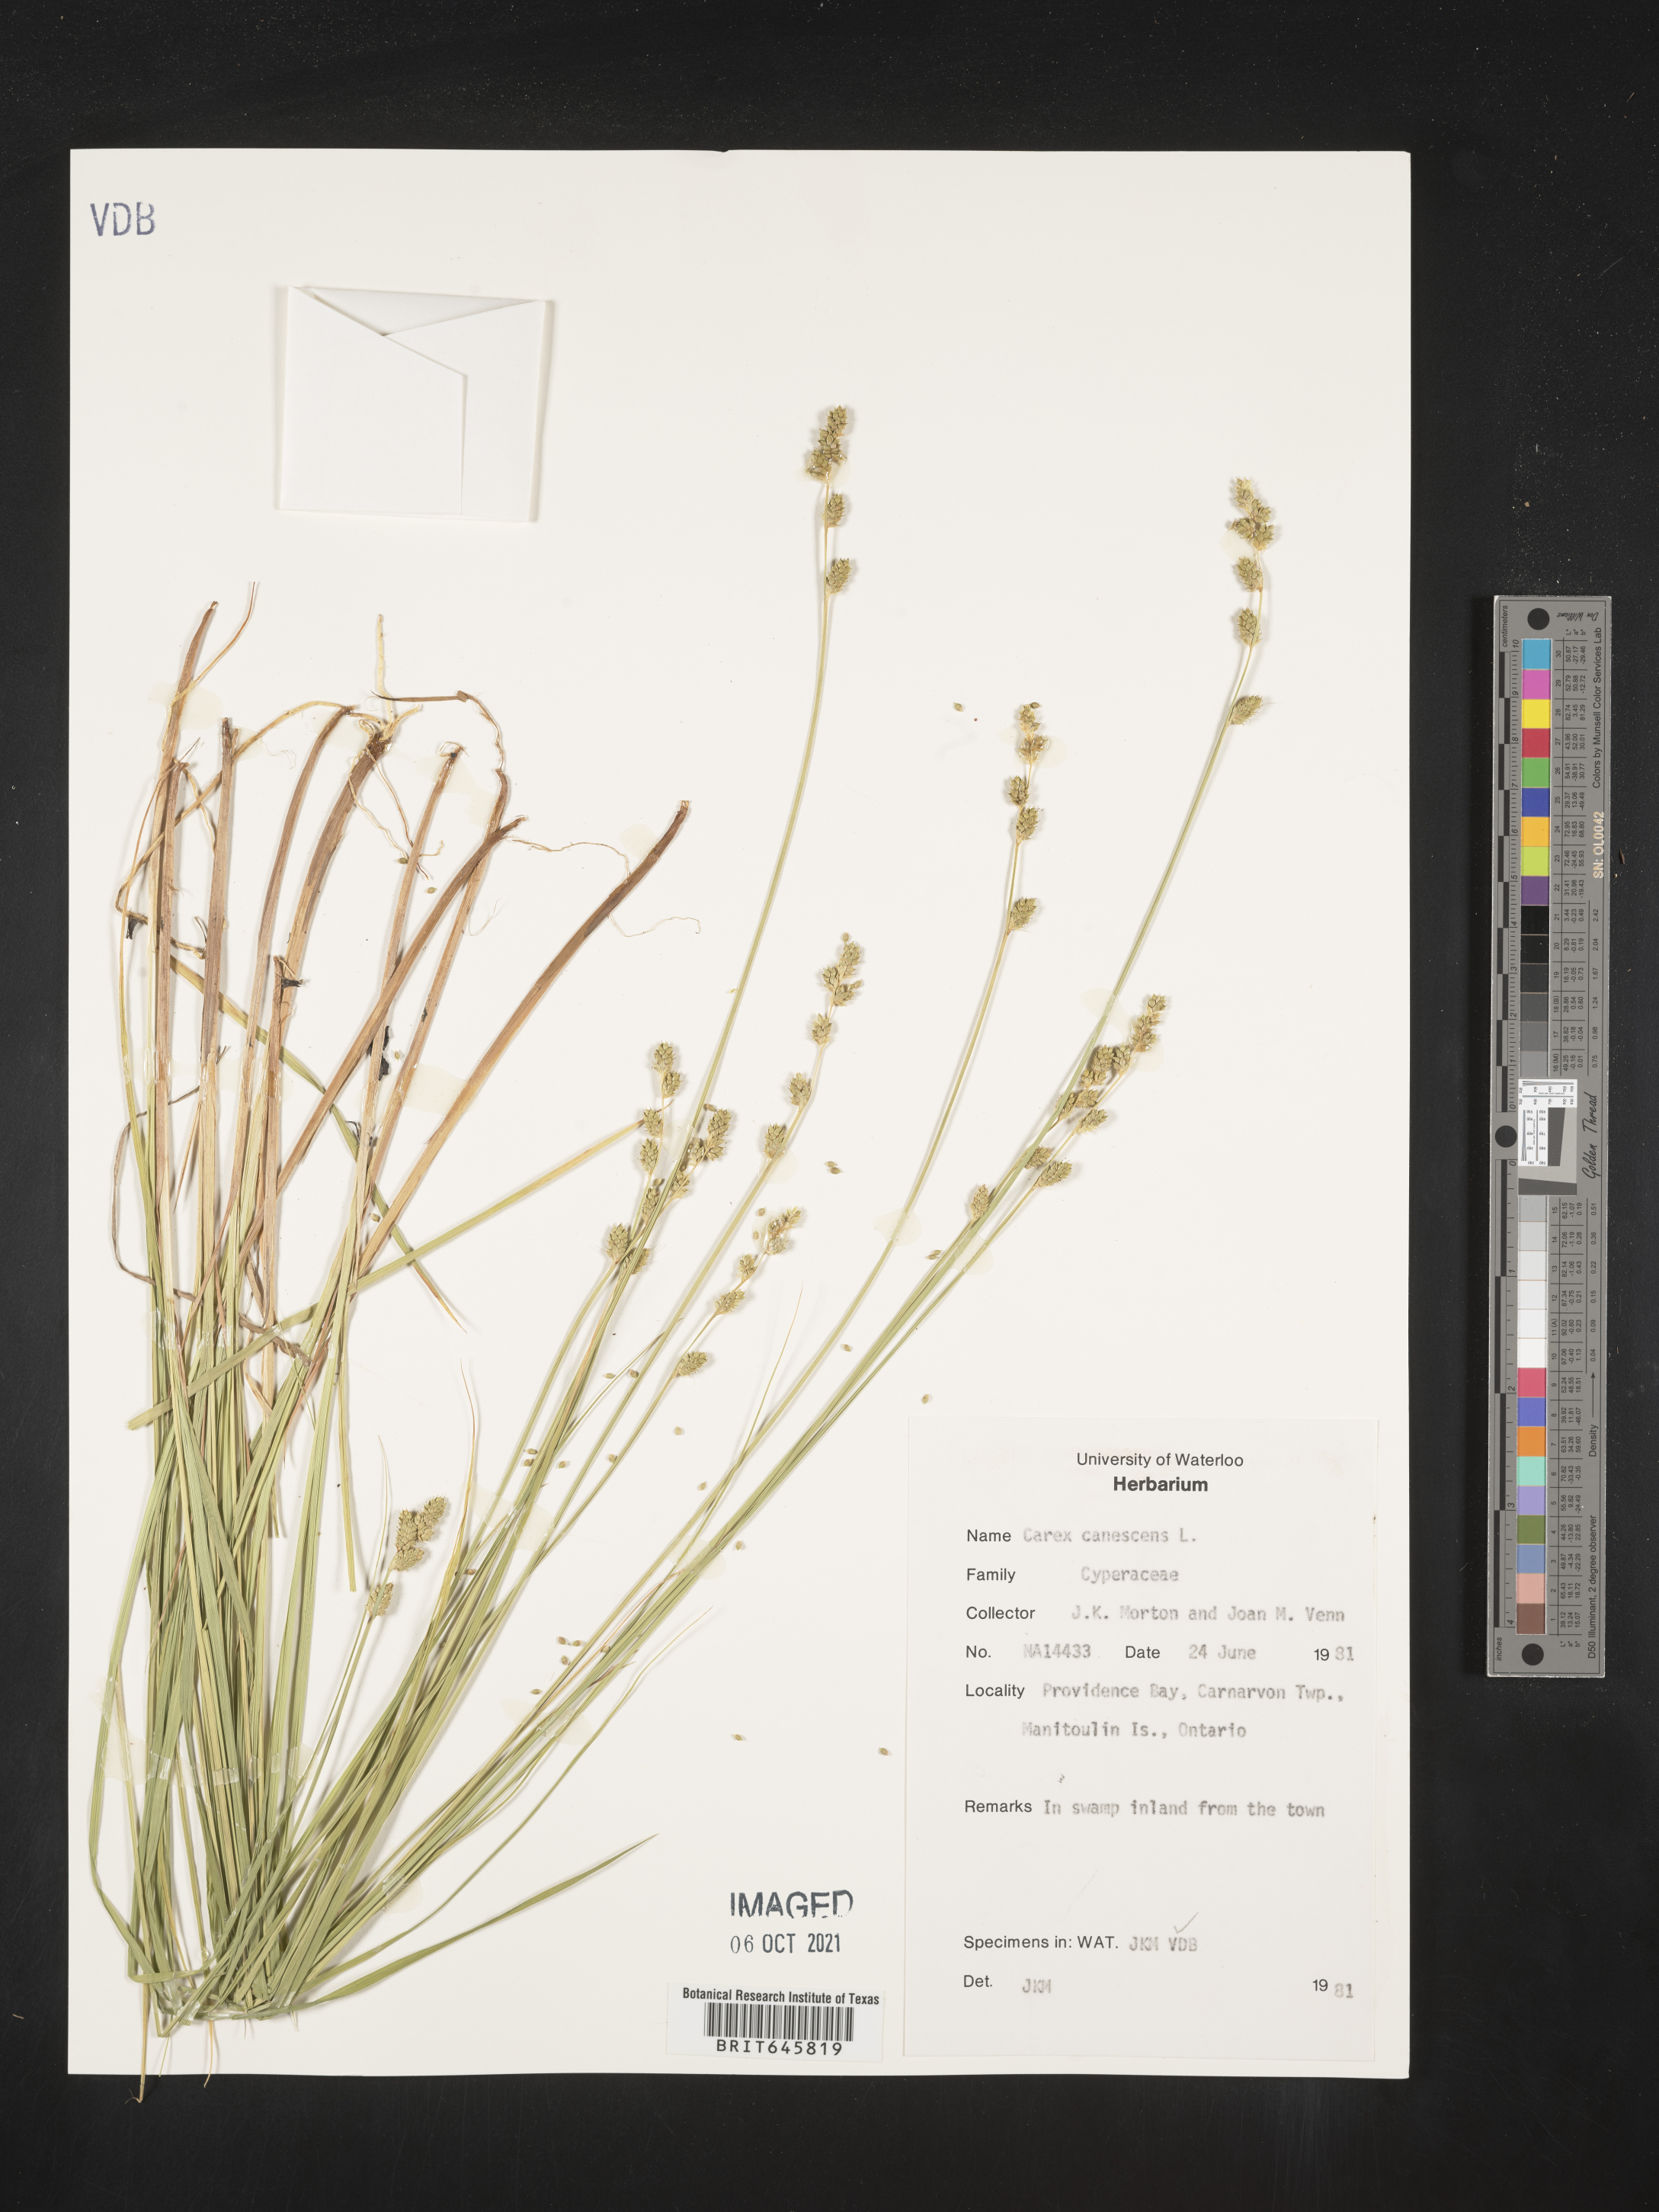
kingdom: Plantae
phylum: Tracheophyta
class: Liliopsida
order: Poales
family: Cyperaceae
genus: Carex
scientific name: Carex canescens
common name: White sedge
